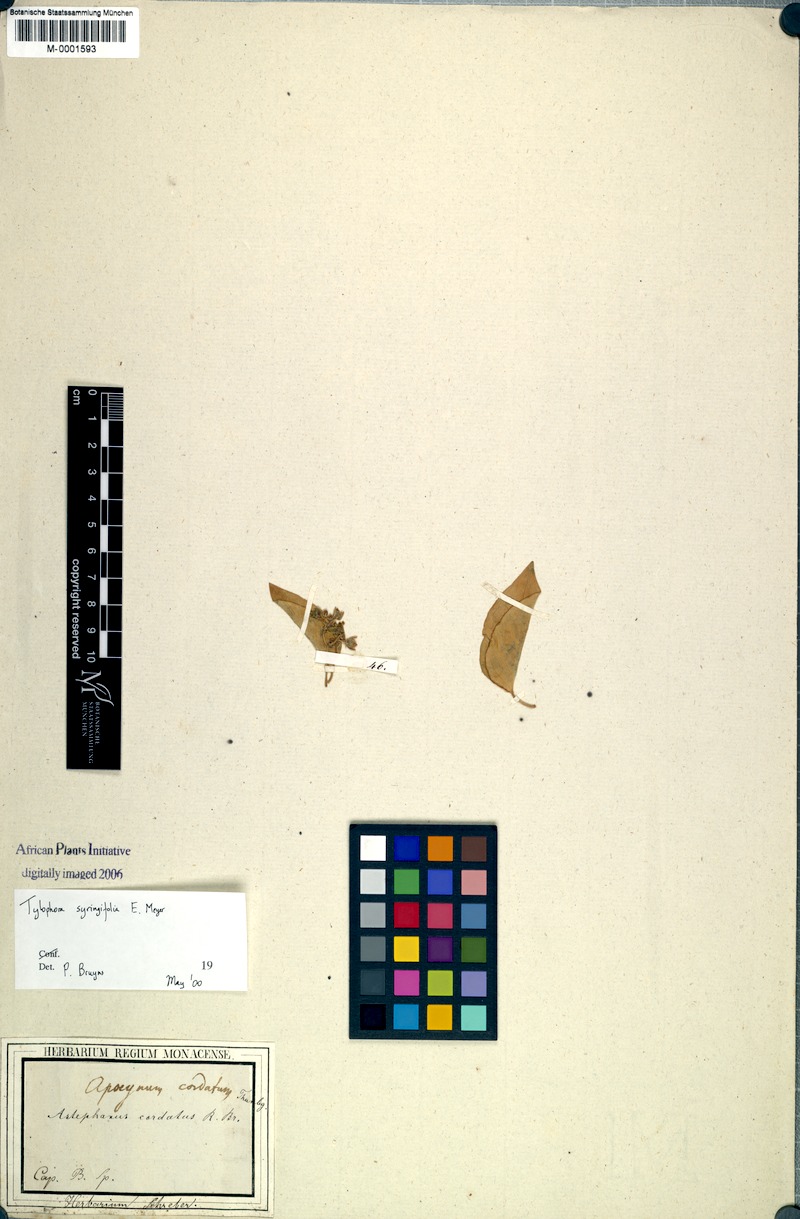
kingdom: Plantae
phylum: Tracheophyta
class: Magnoliopsida
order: Gentianales
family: Apocynaceae
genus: Vincetoxicum
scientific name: Vincetoxicum cordatum
